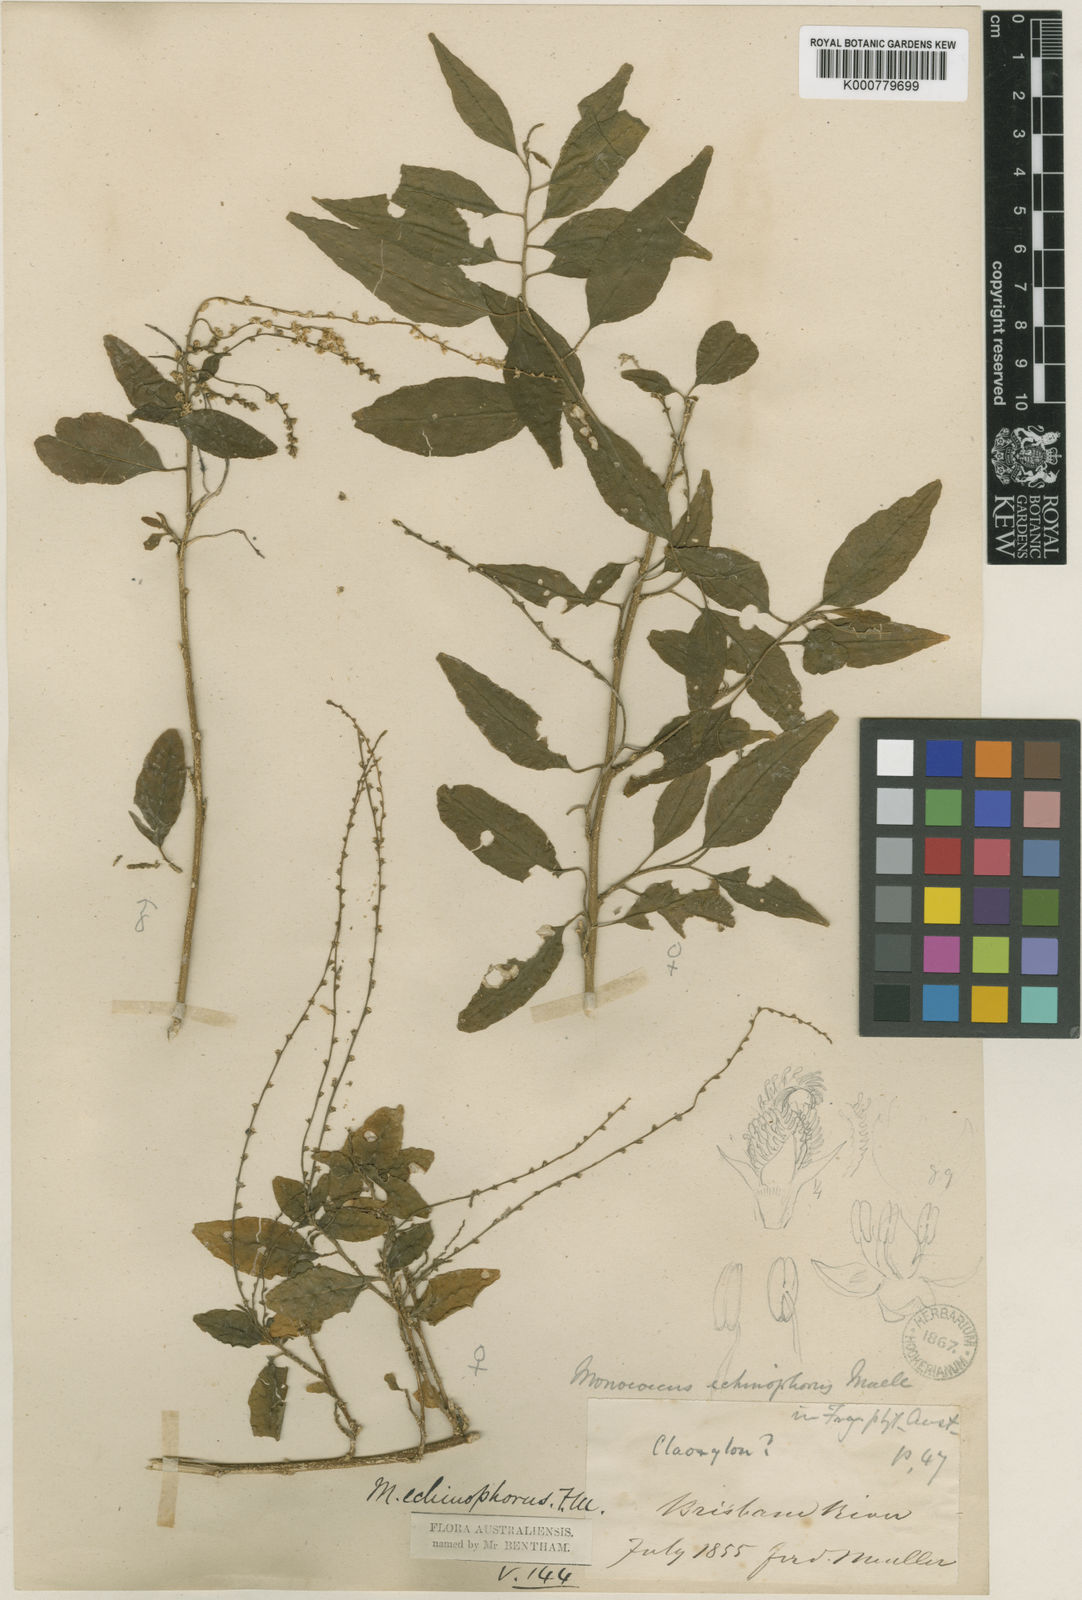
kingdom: Plantae
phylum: Tracheophyta
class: Magnoliopsida
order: Caryophyllales
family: Phytolaccaceae
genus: Monococcus
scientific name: Monococcus echinophorus
